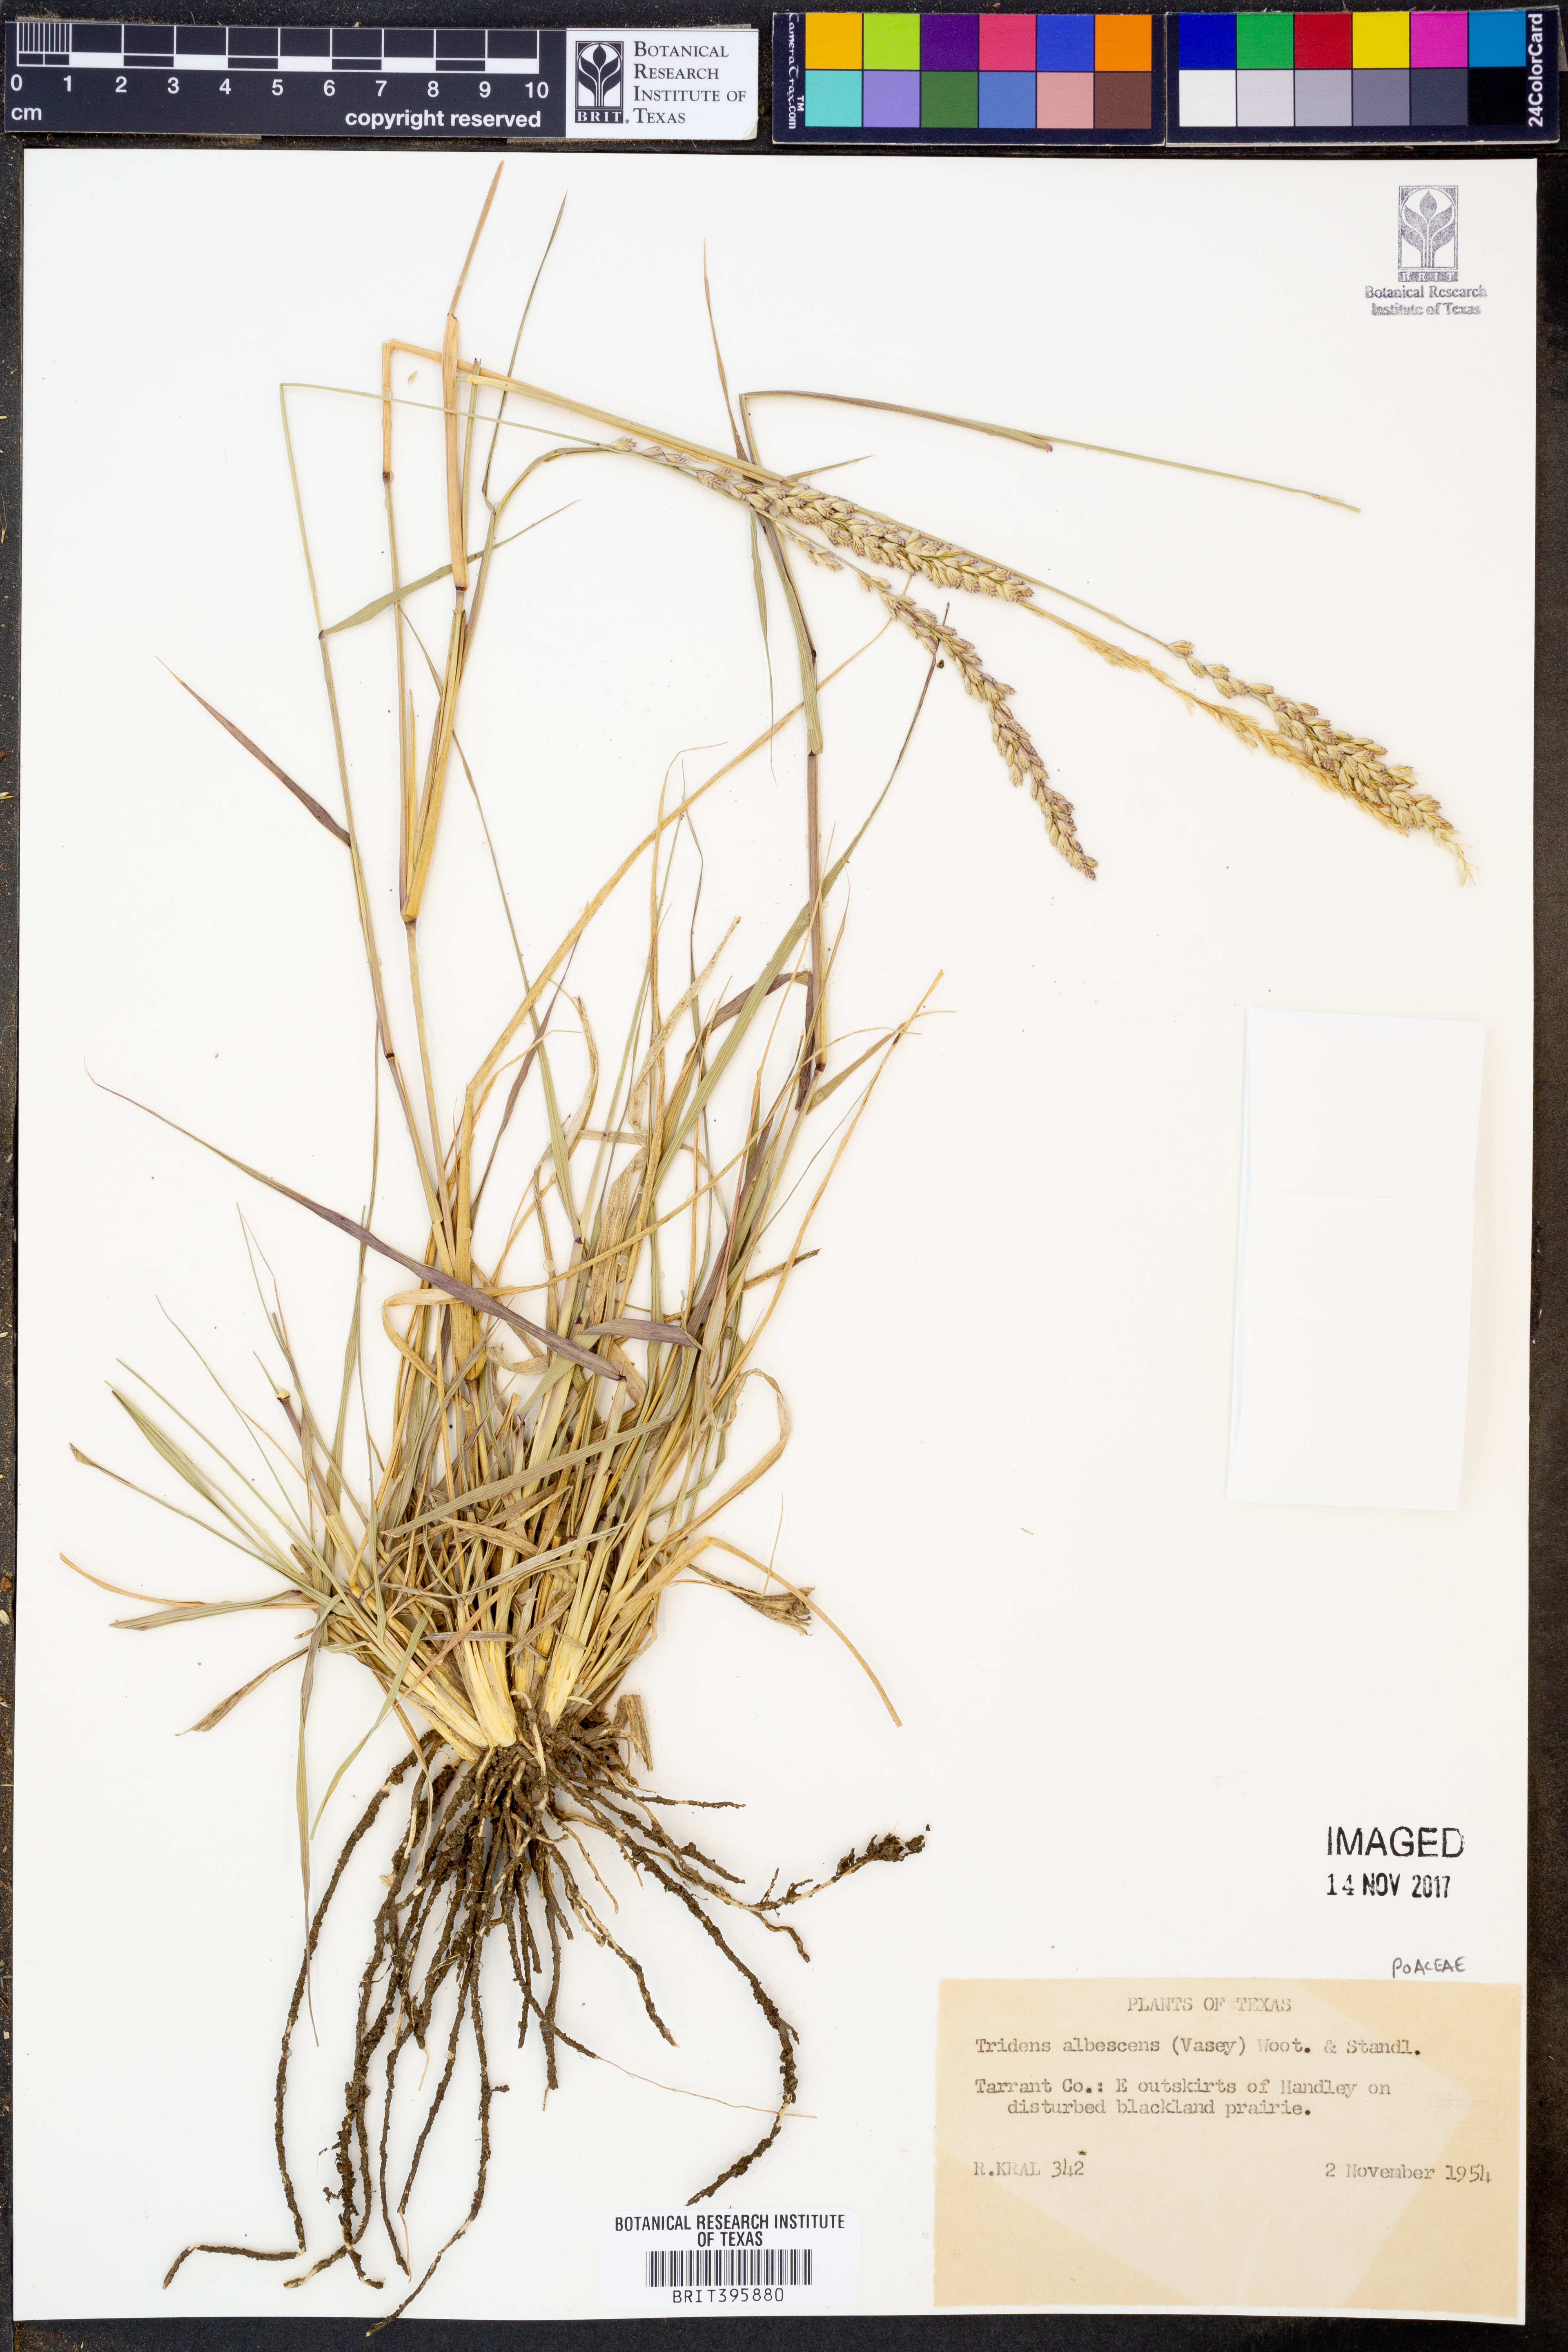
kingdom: Plantae
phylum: Tracheophyta
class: Liliopsida
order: Poales
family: Poaceae
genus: Tridens
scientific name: Tridens albescens
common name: White tridens
